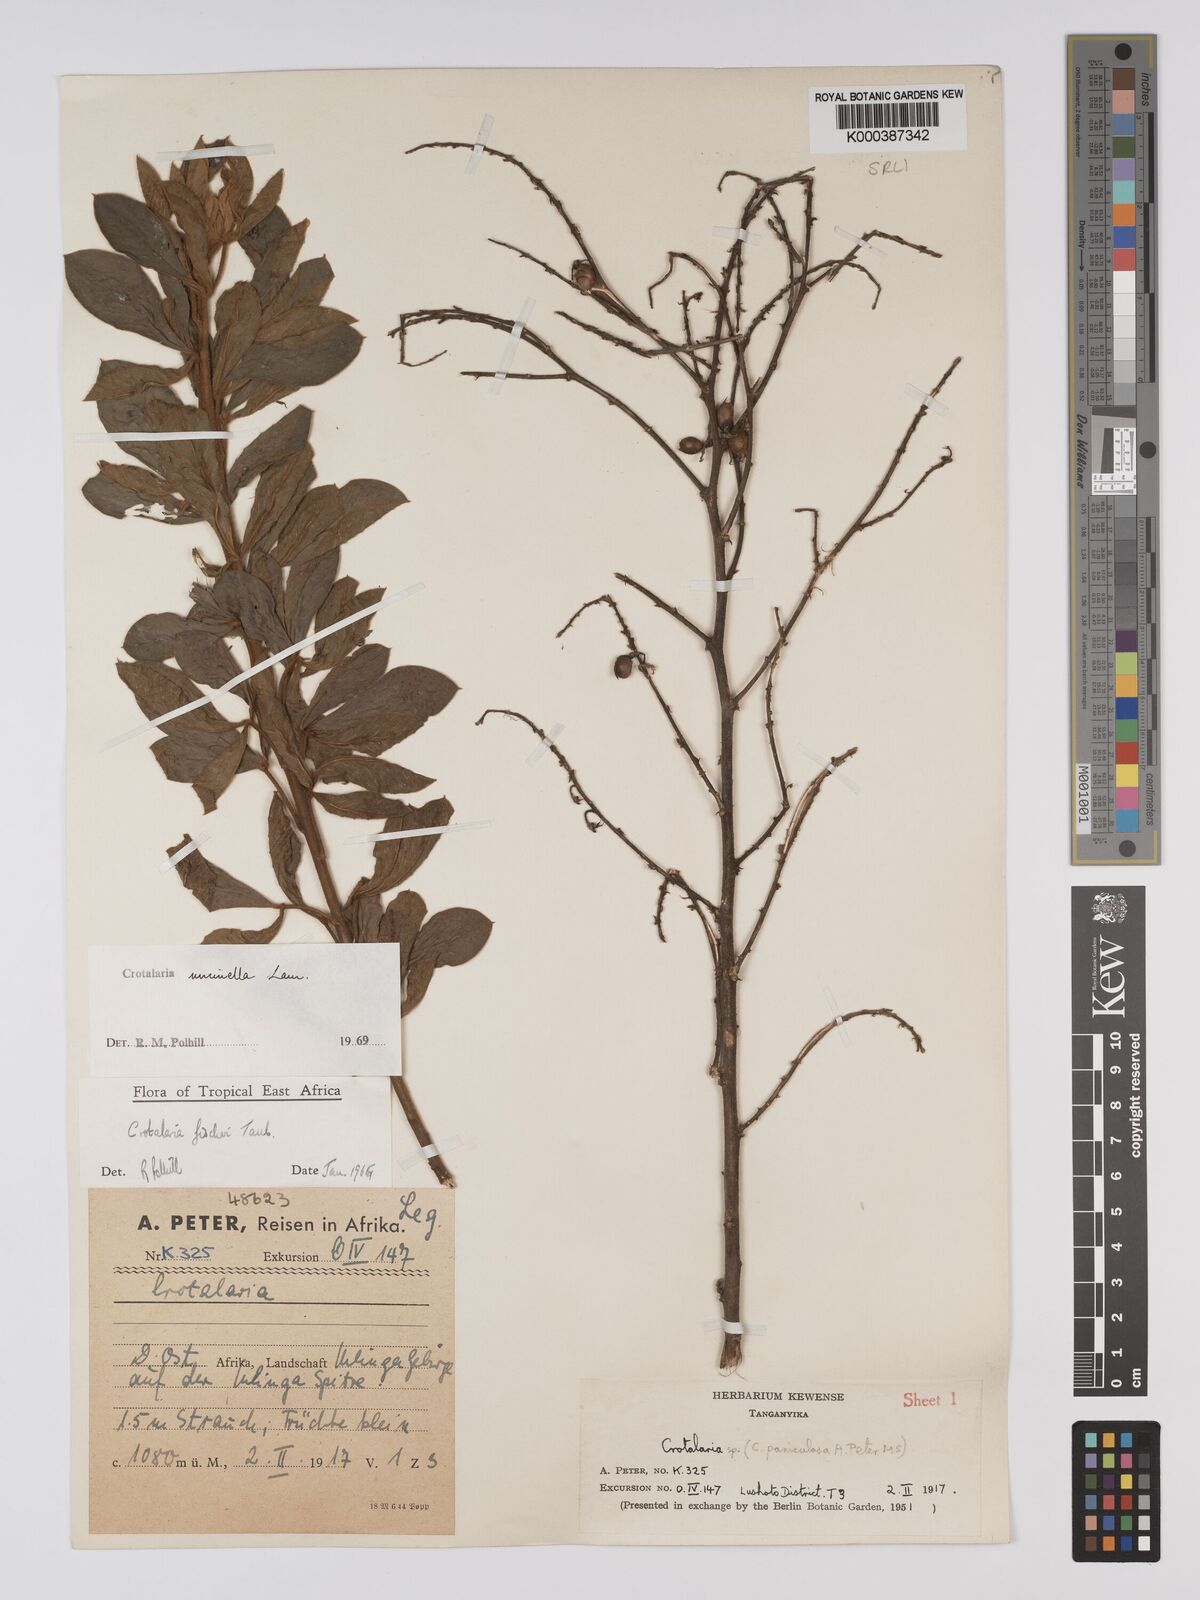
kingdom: Plantae
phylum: Tracheophyta
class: Magnoliopsida
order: Fabales
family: Fabaceae
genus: Crotalaria
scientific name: Crotalaria uncinella
